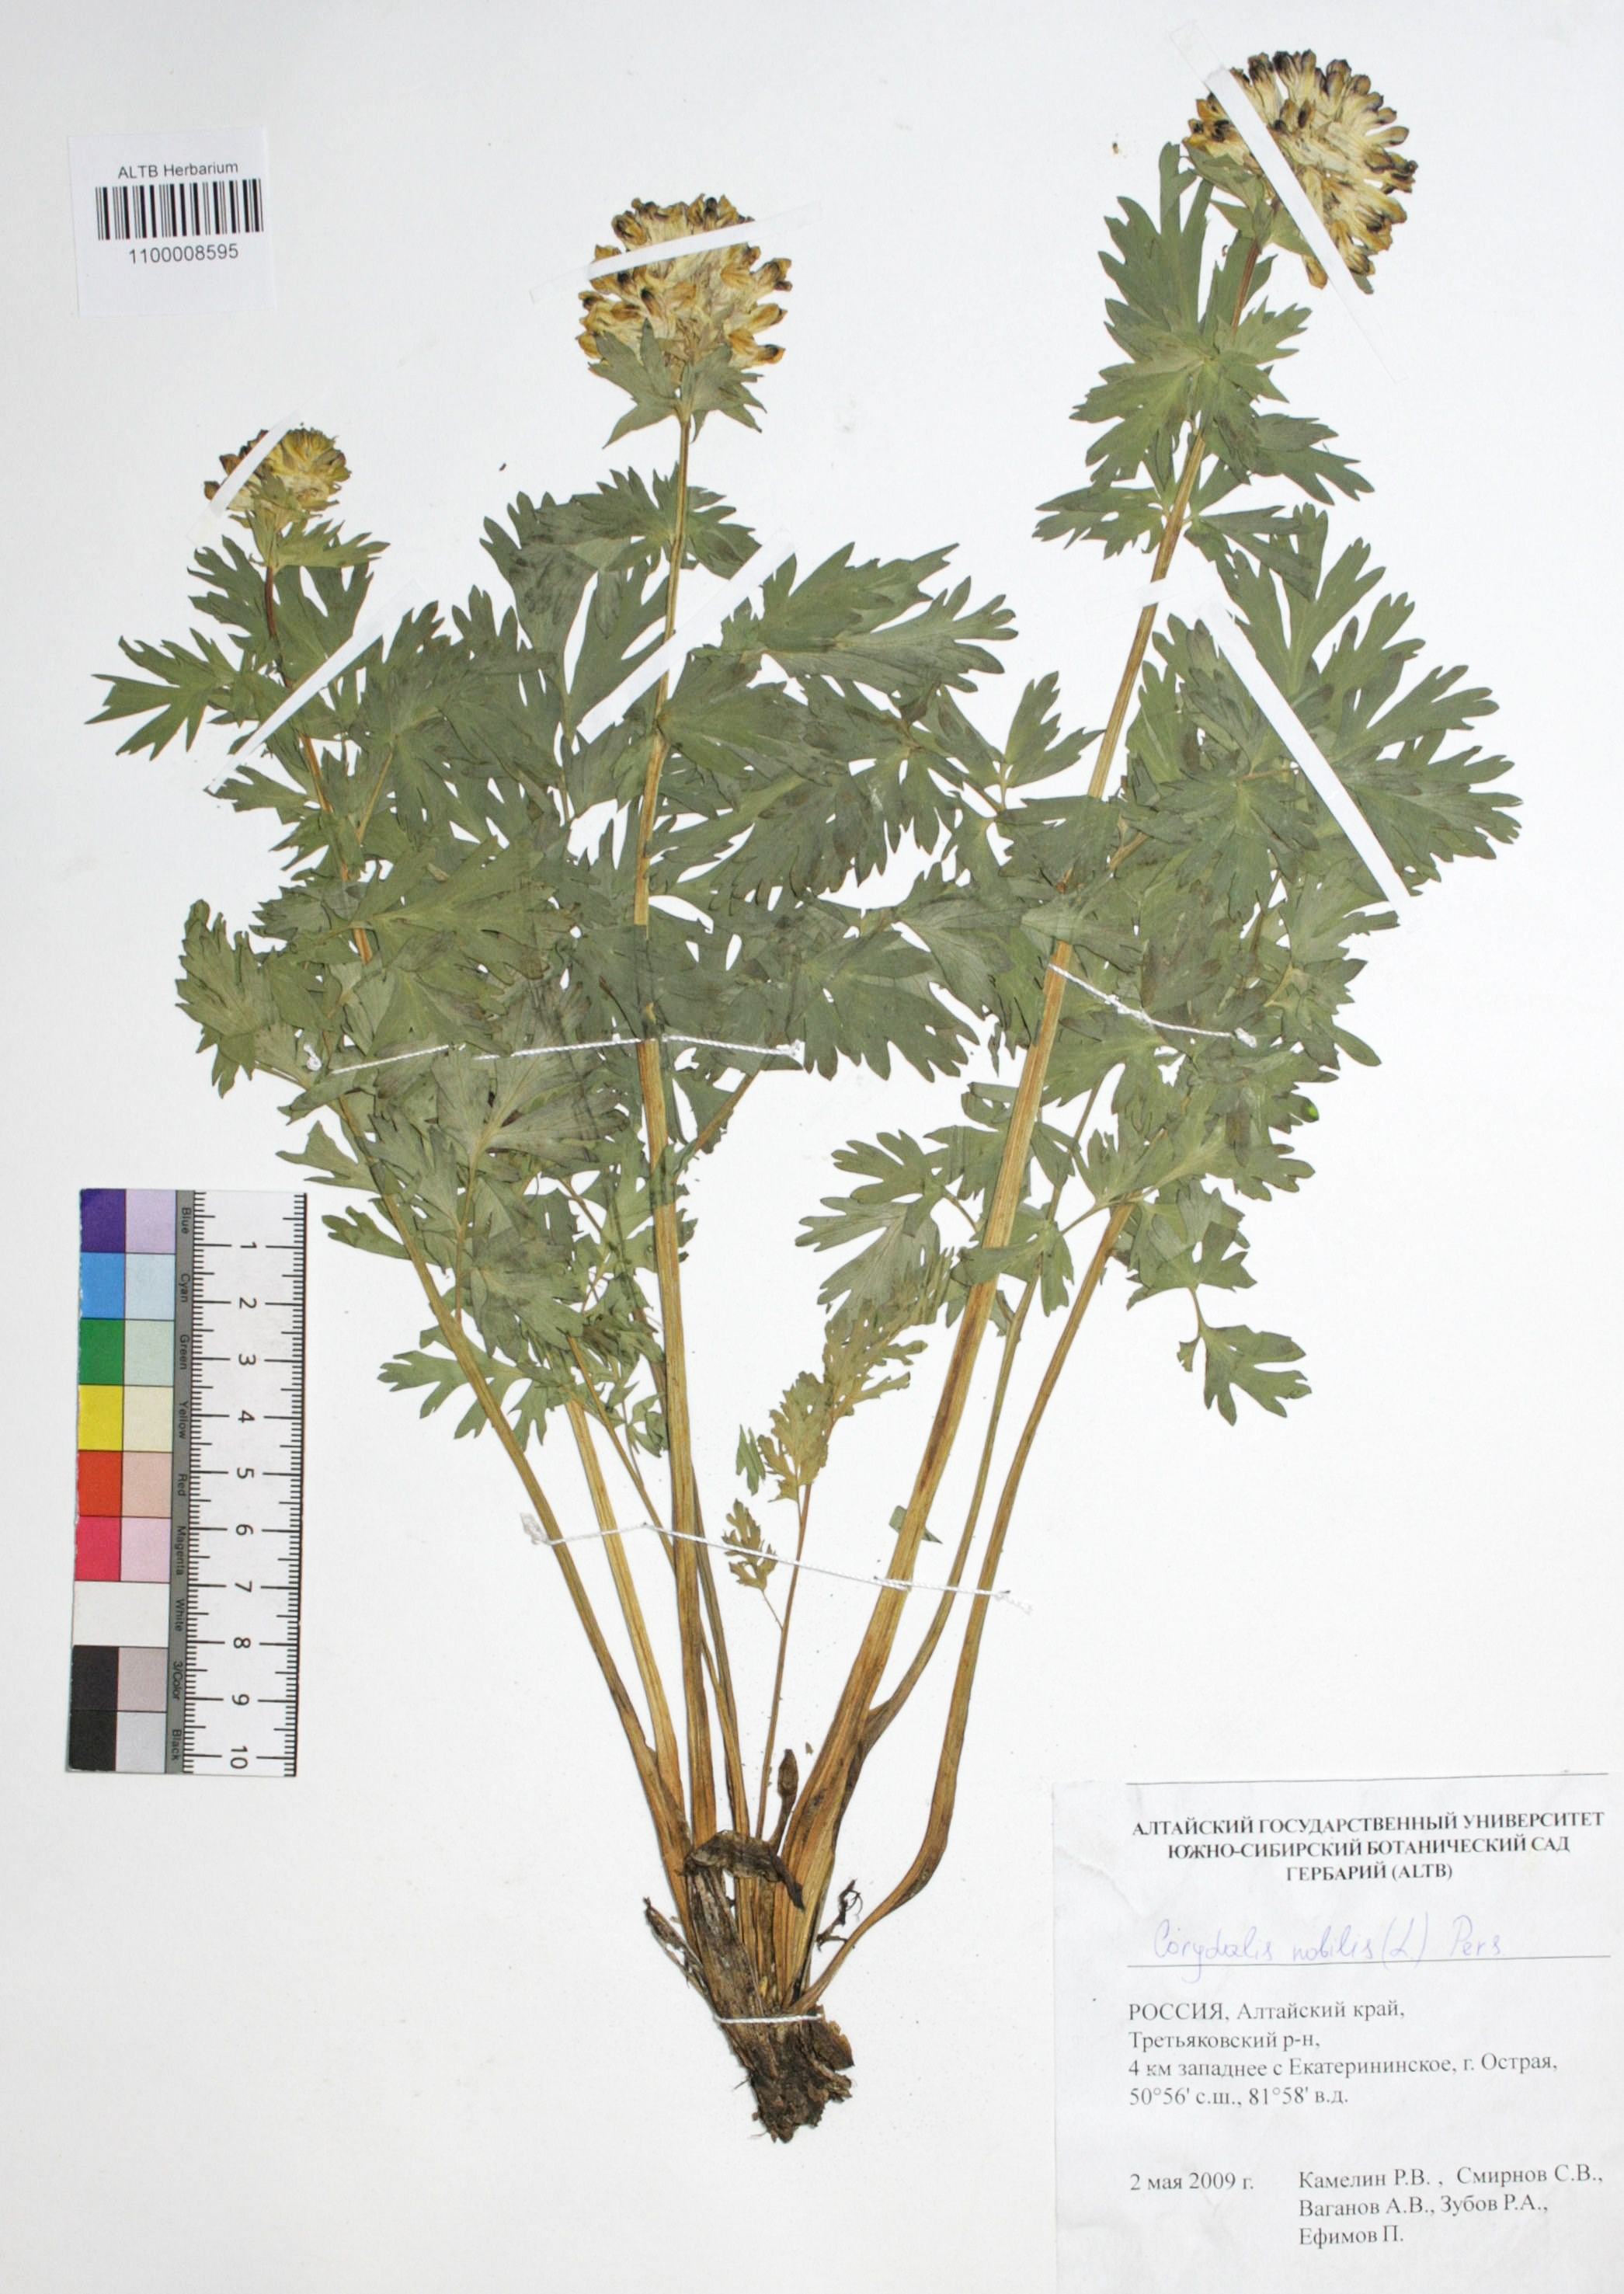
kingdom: Plantae
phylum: Tracheophyta
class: Magnoliopsida
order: Ranunculales
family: Papaveraceae
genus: Corydalis
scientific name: Corydalis nobilis
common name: Siberian corydalis
